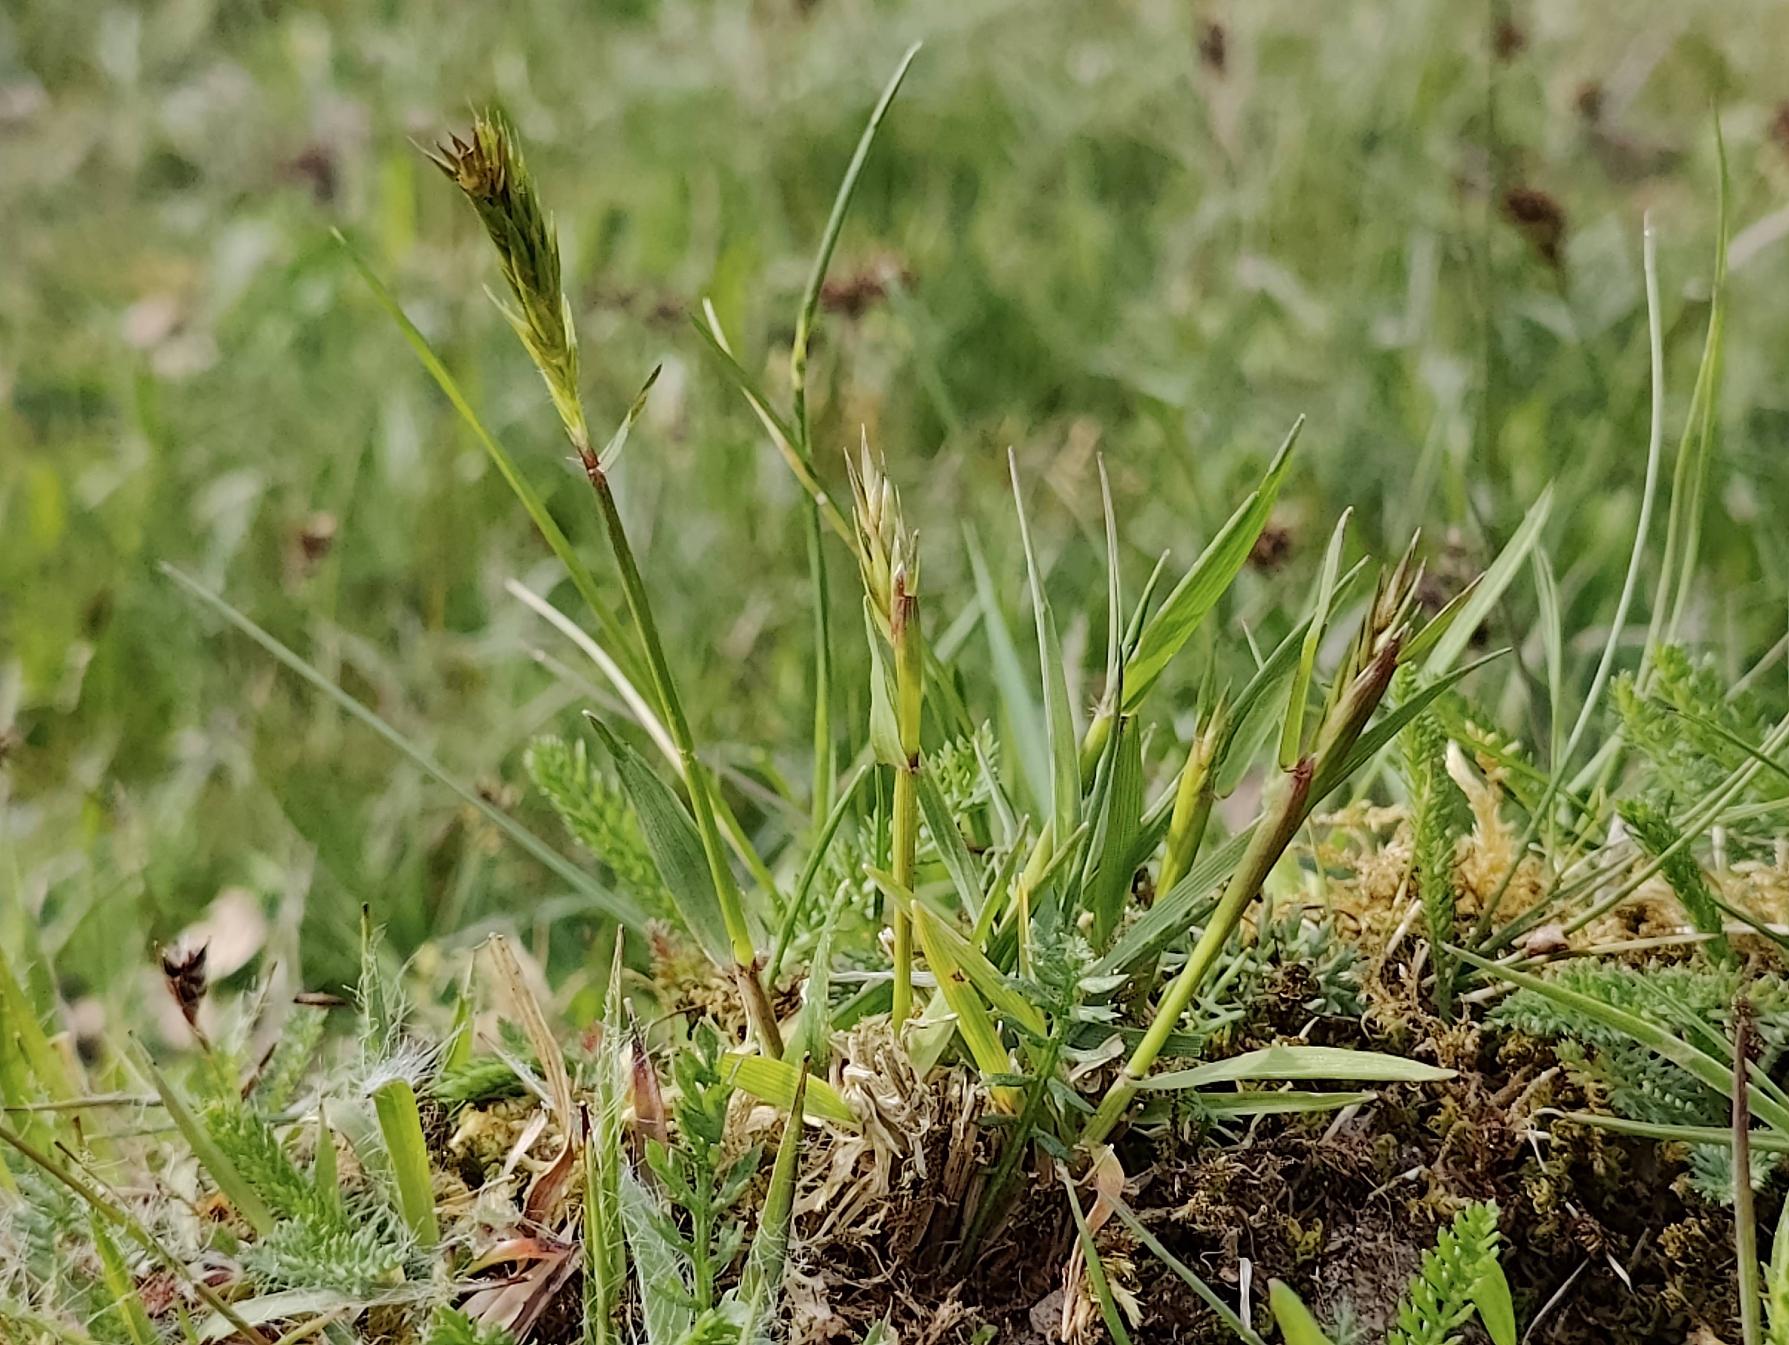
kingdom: Plantae
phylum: Tracheophyta
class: Liliopsida
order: Poales
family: Poaceae
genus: Anthoxanthum
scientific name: Anthoxanthum odoratum
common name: Vellugtende gulaks
